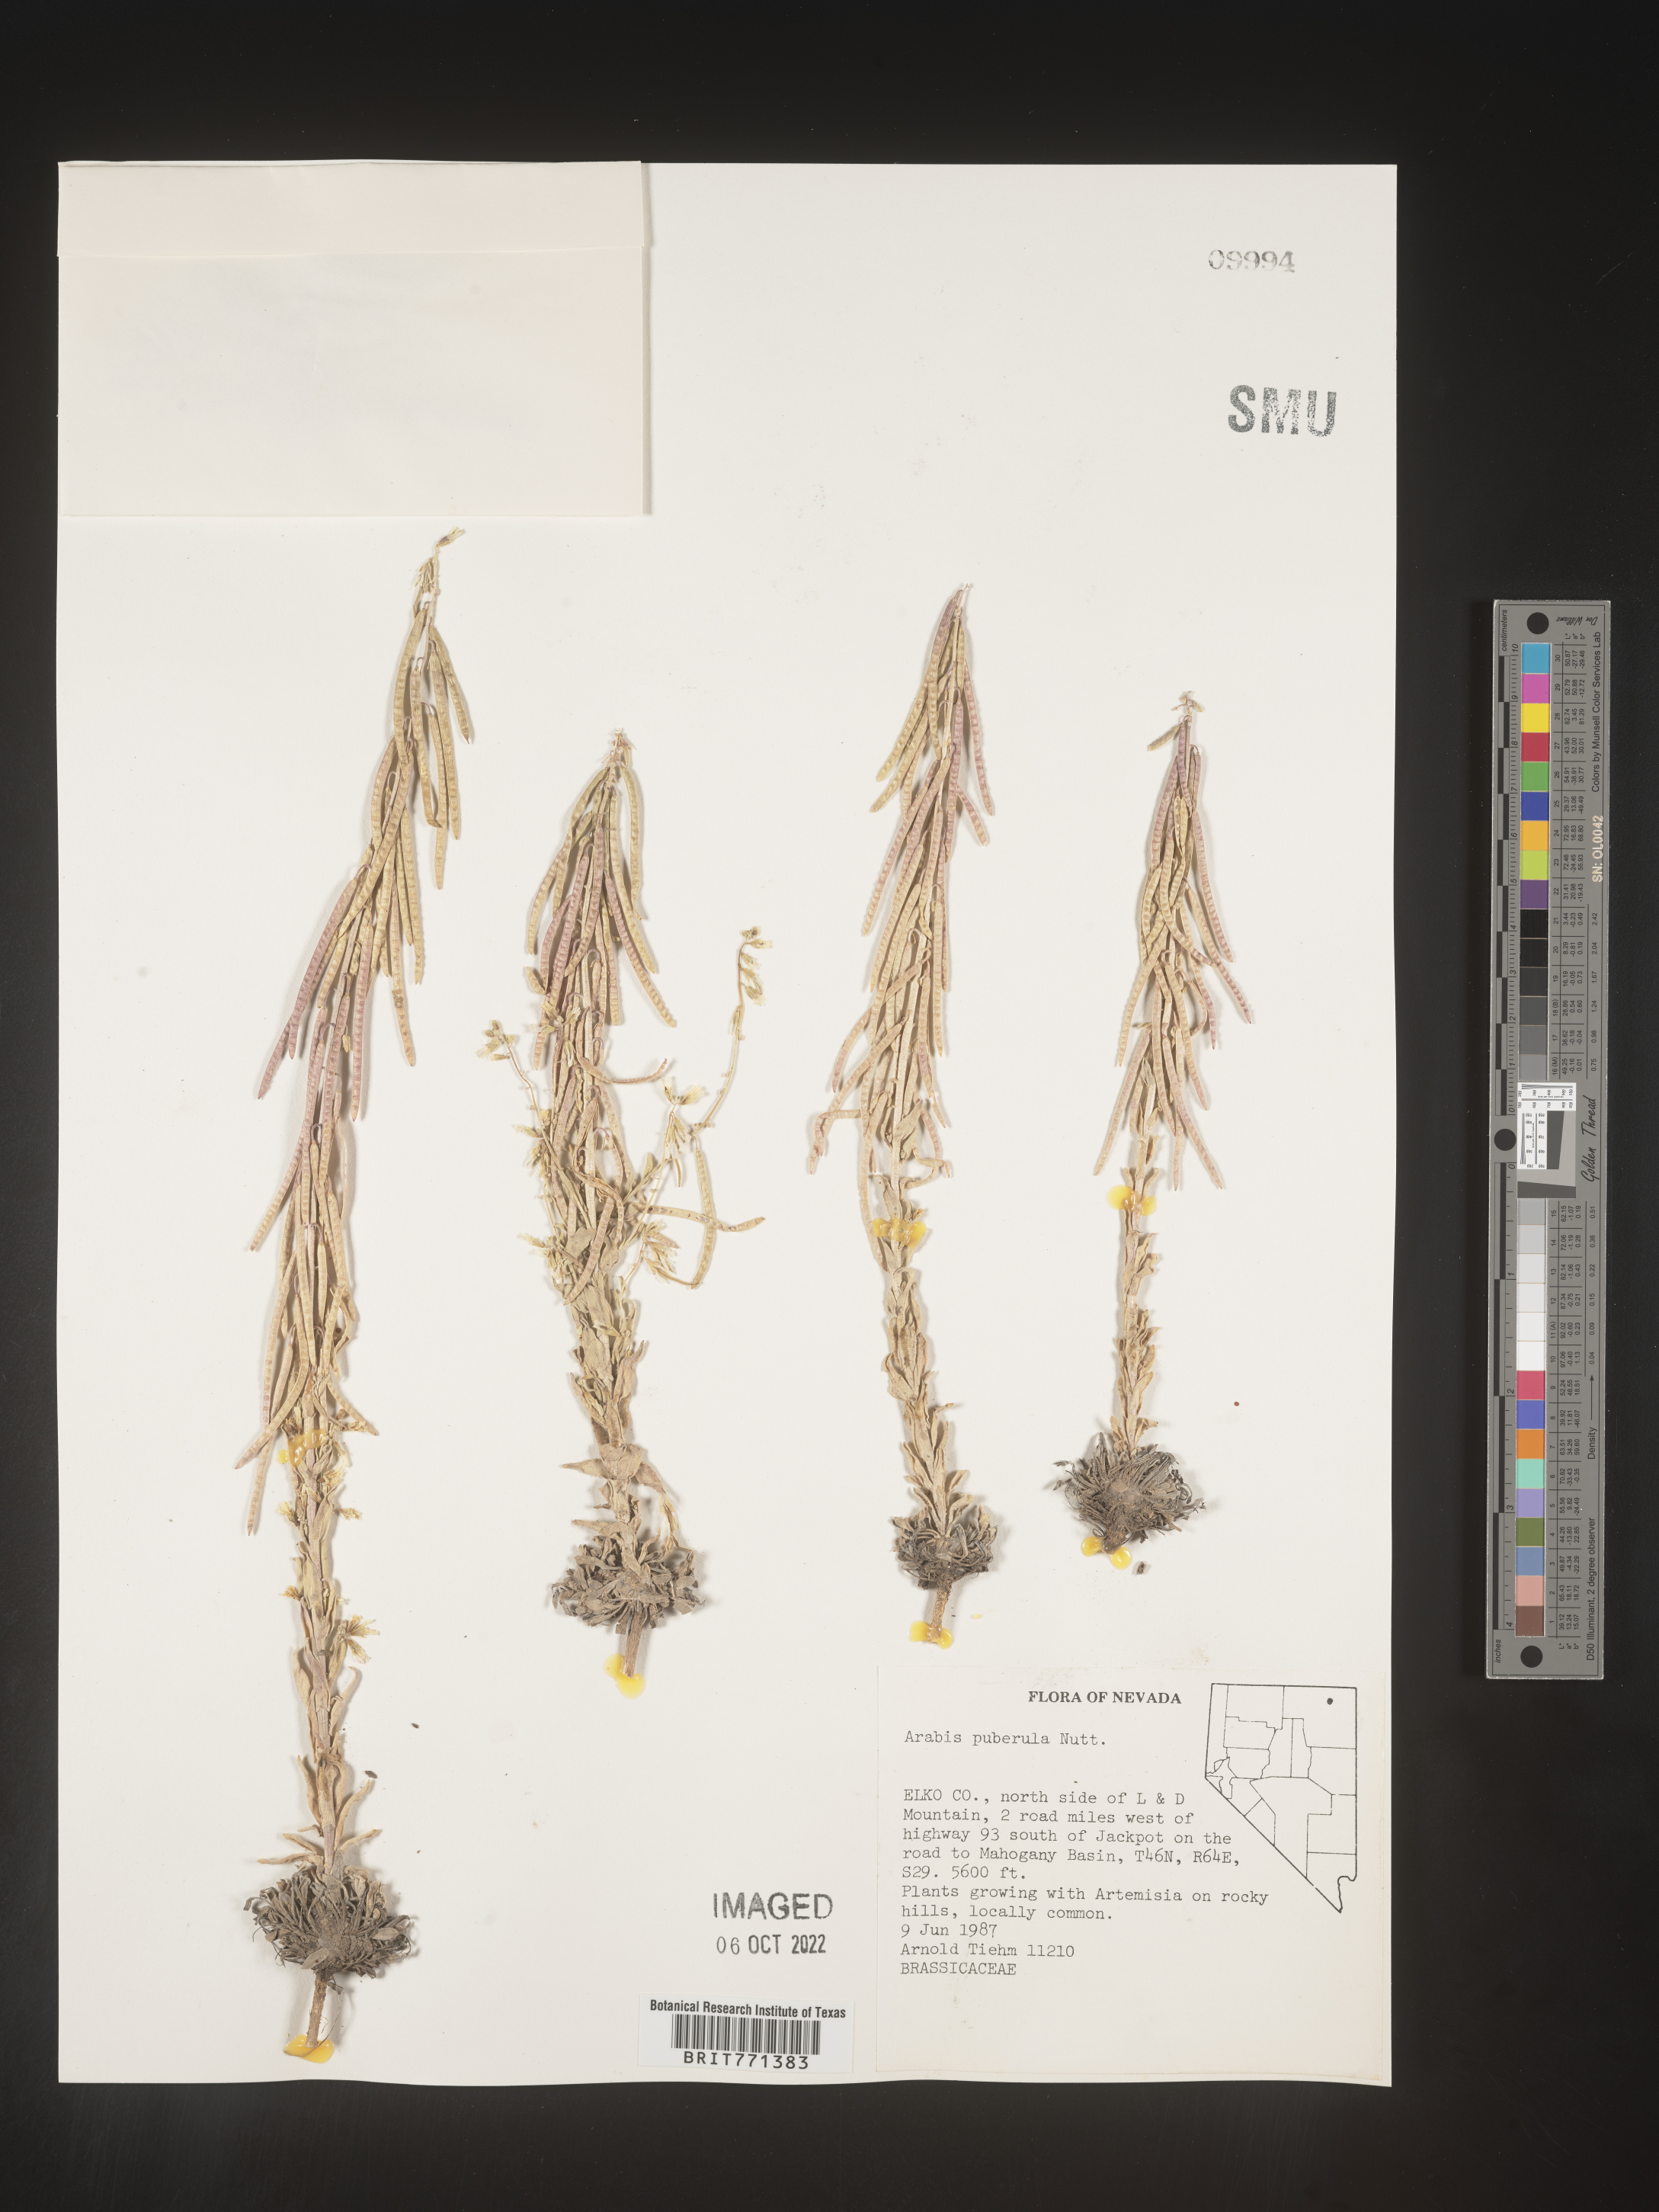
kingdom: Plantae
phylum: Tracheophyta
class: Magnoliopsida
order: Brassicales
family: Brassicaceae
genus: Arabis
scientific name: Arabis
